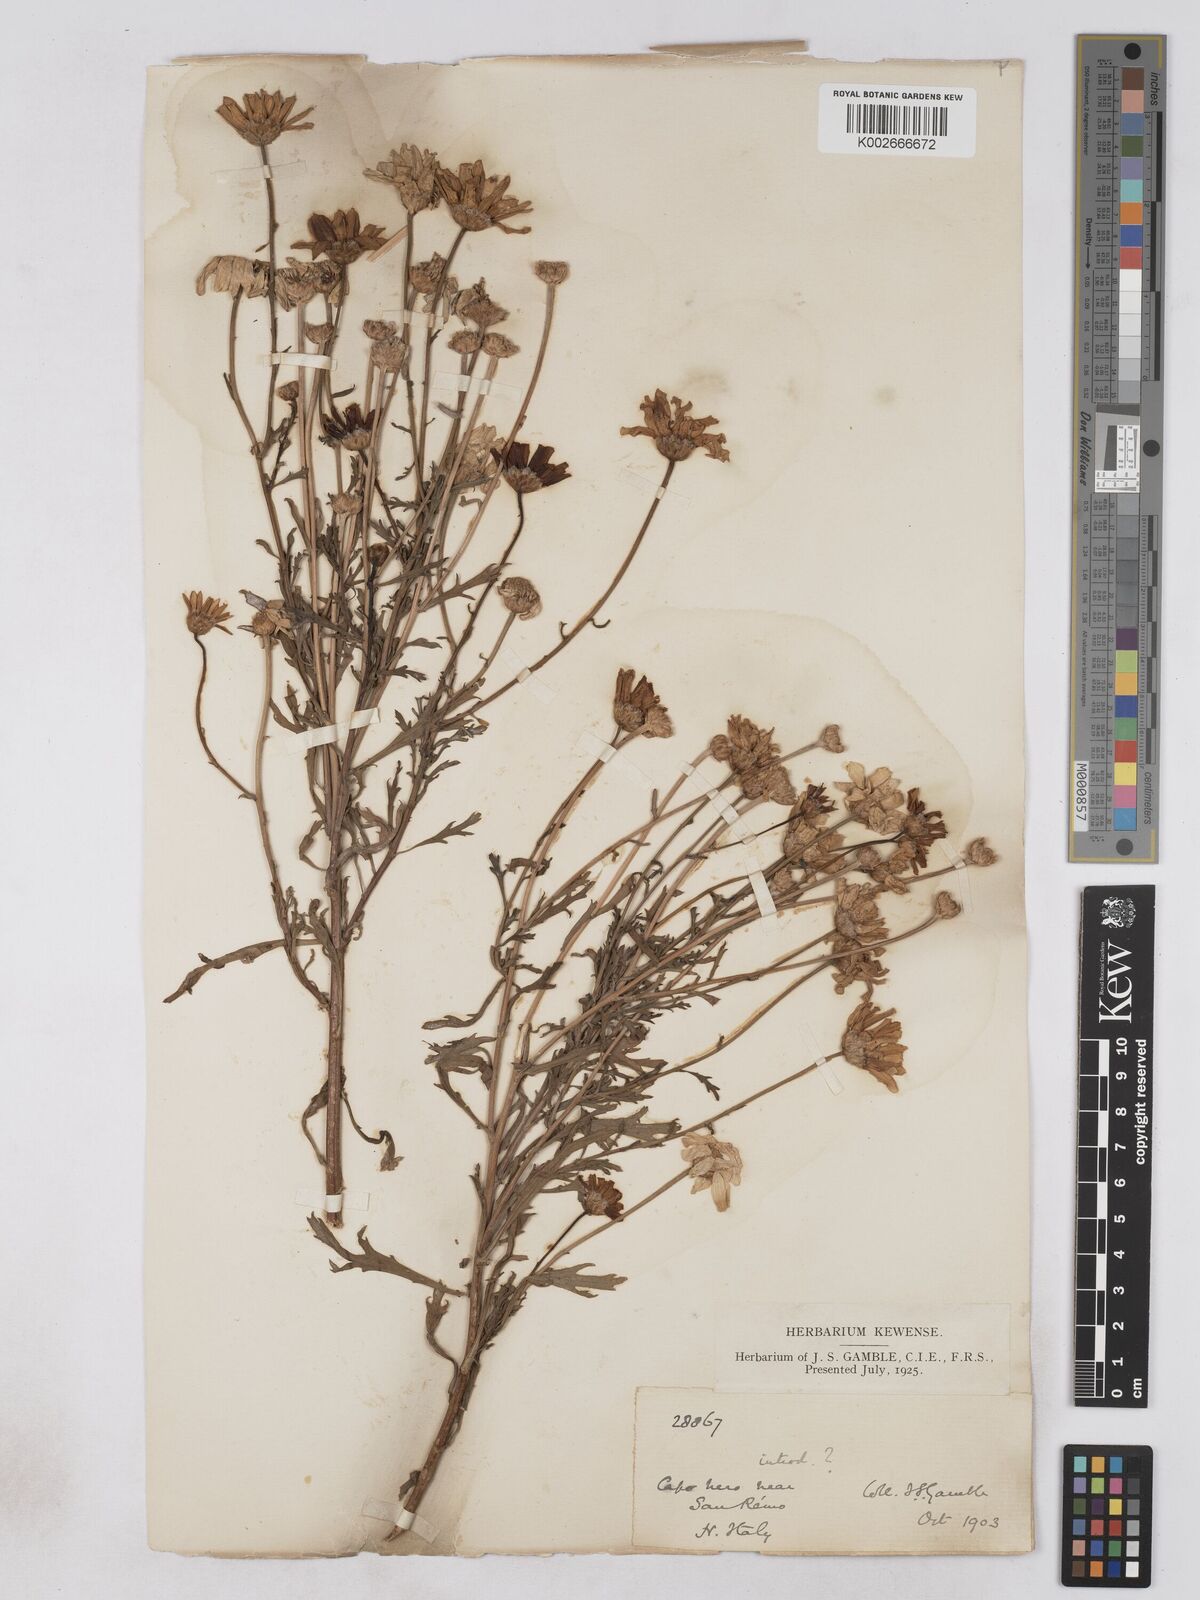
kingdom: Plantae
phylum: Tracheophyta
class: Magnoliopsida
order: Asterales
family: Asteraceae
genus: Glebionis
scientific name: Glebionis coronaria
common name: Crowndaisy
